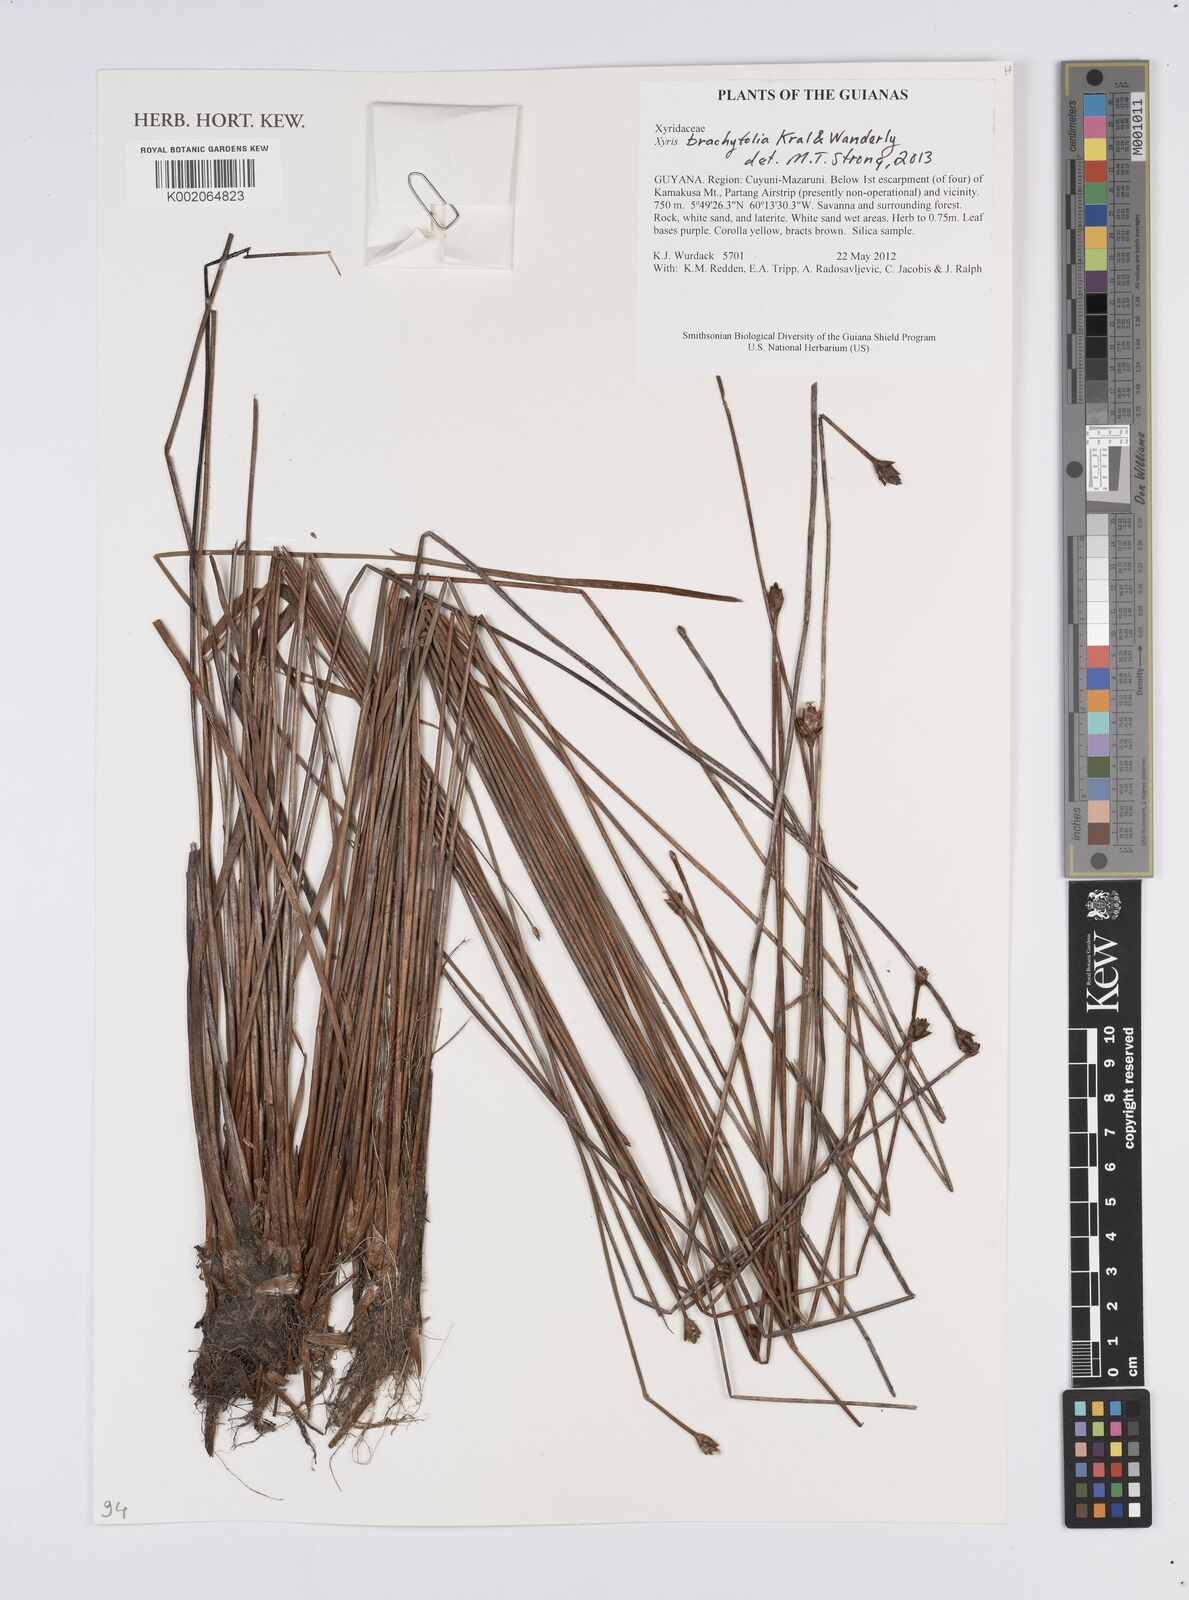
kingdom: Plantae
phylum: Tracheophyta
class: Liliopsida
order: Poales
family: Xyridaceae
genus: Xyris
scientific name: Xyris brachyfolia
